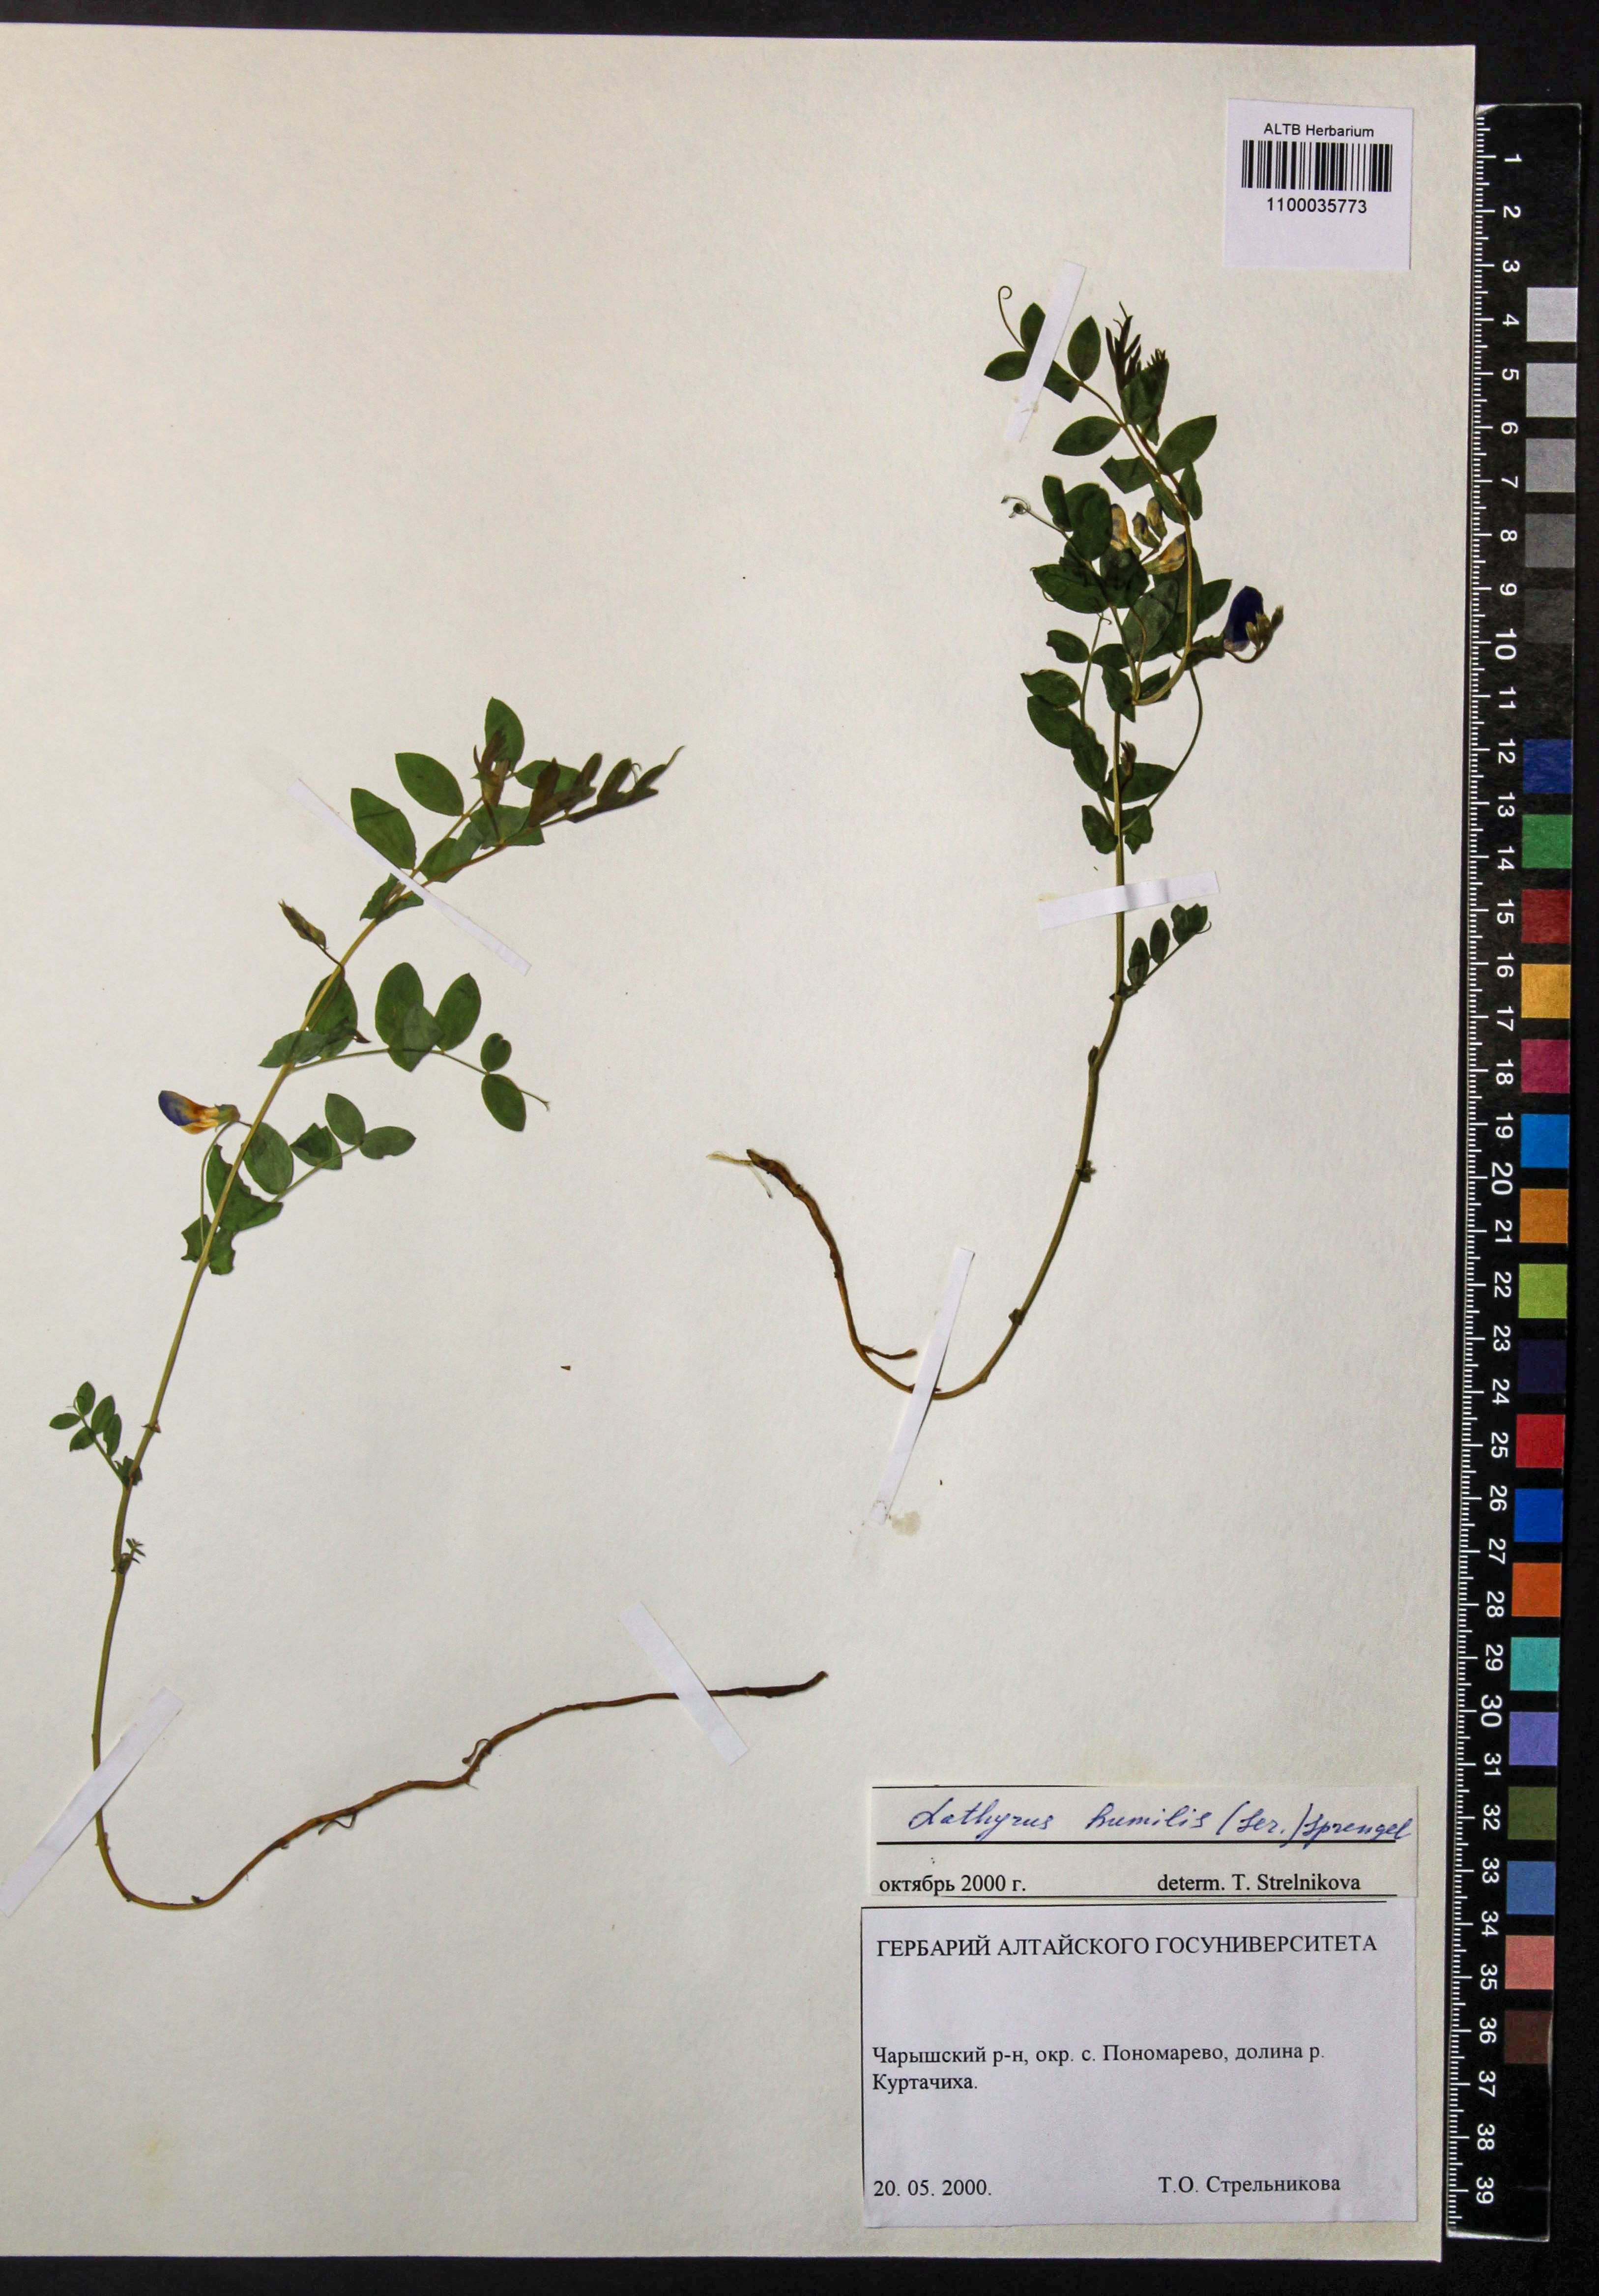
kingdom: Plantae
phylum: Tracheophyta
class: Magnoliopsida
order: Fabales
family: Fabaceae
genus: Lathyrus
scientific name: Lathyrus humilis
